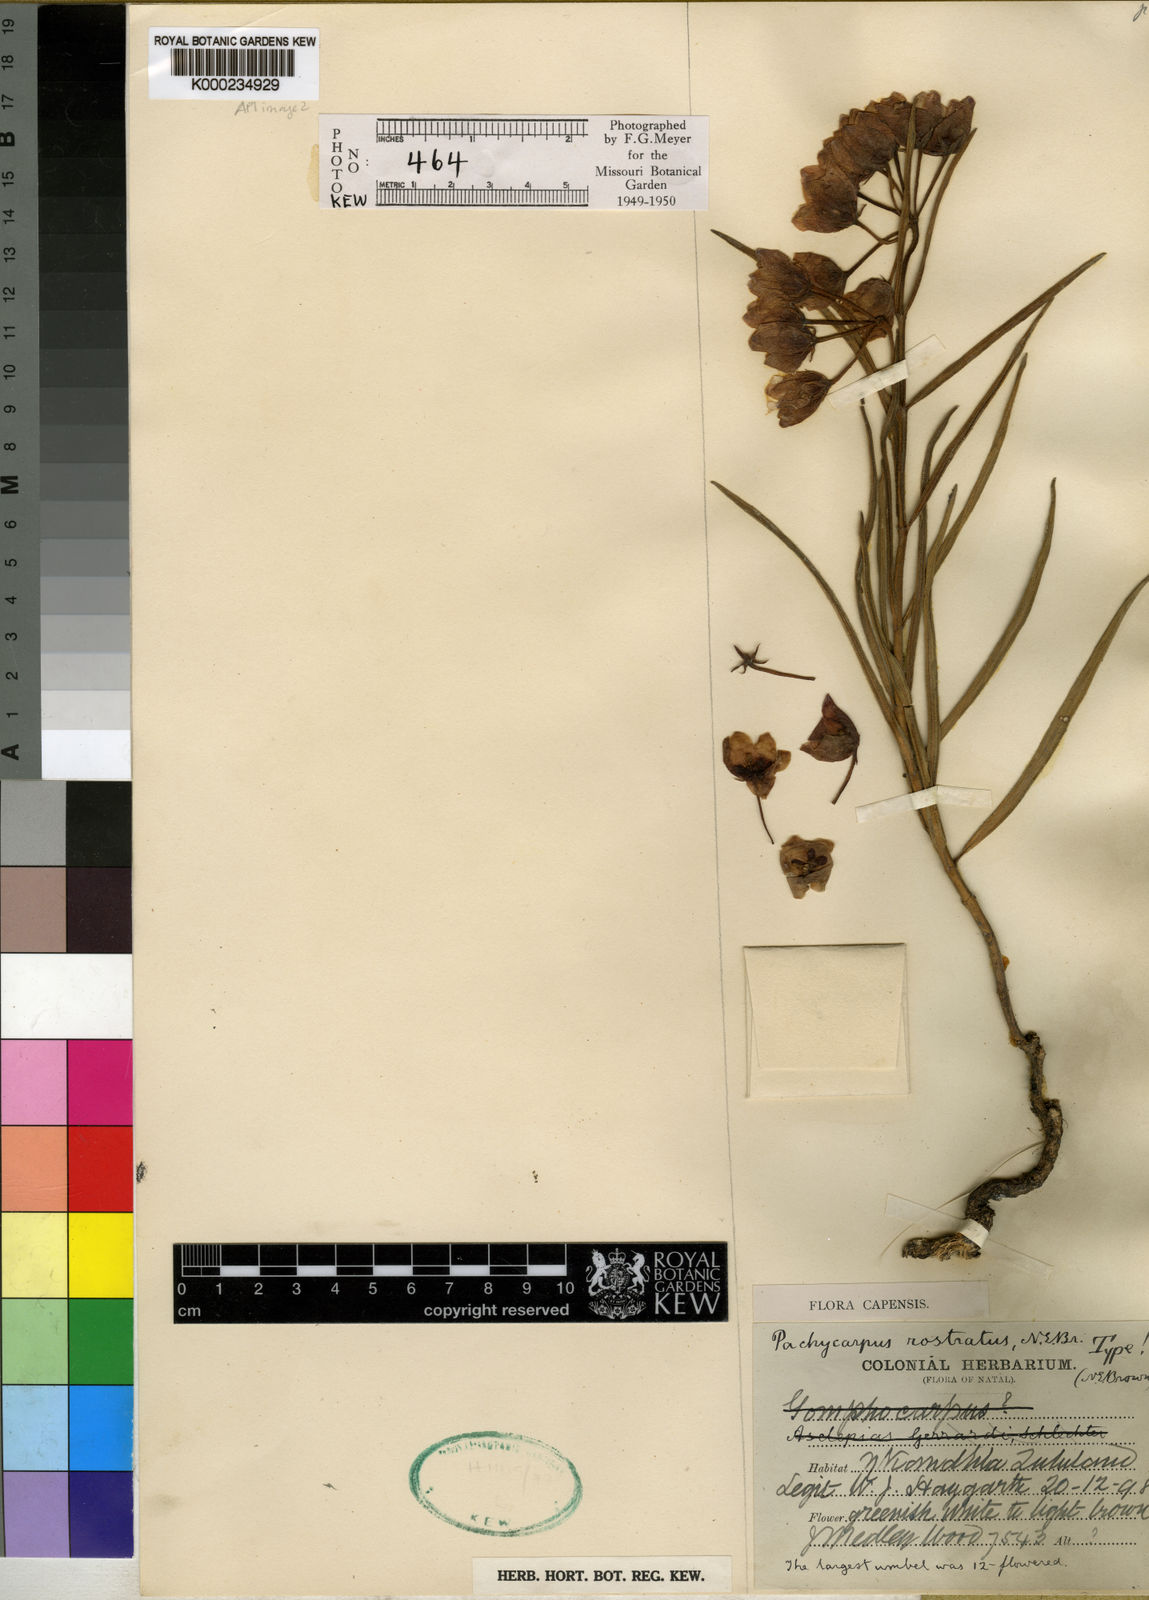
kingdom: Plantae
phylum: Tracheophyta
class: Magnoliopsida
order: Gentianales
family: Apocynaceae
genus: Pachycarpus
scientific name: Pachycarpus rostratus
